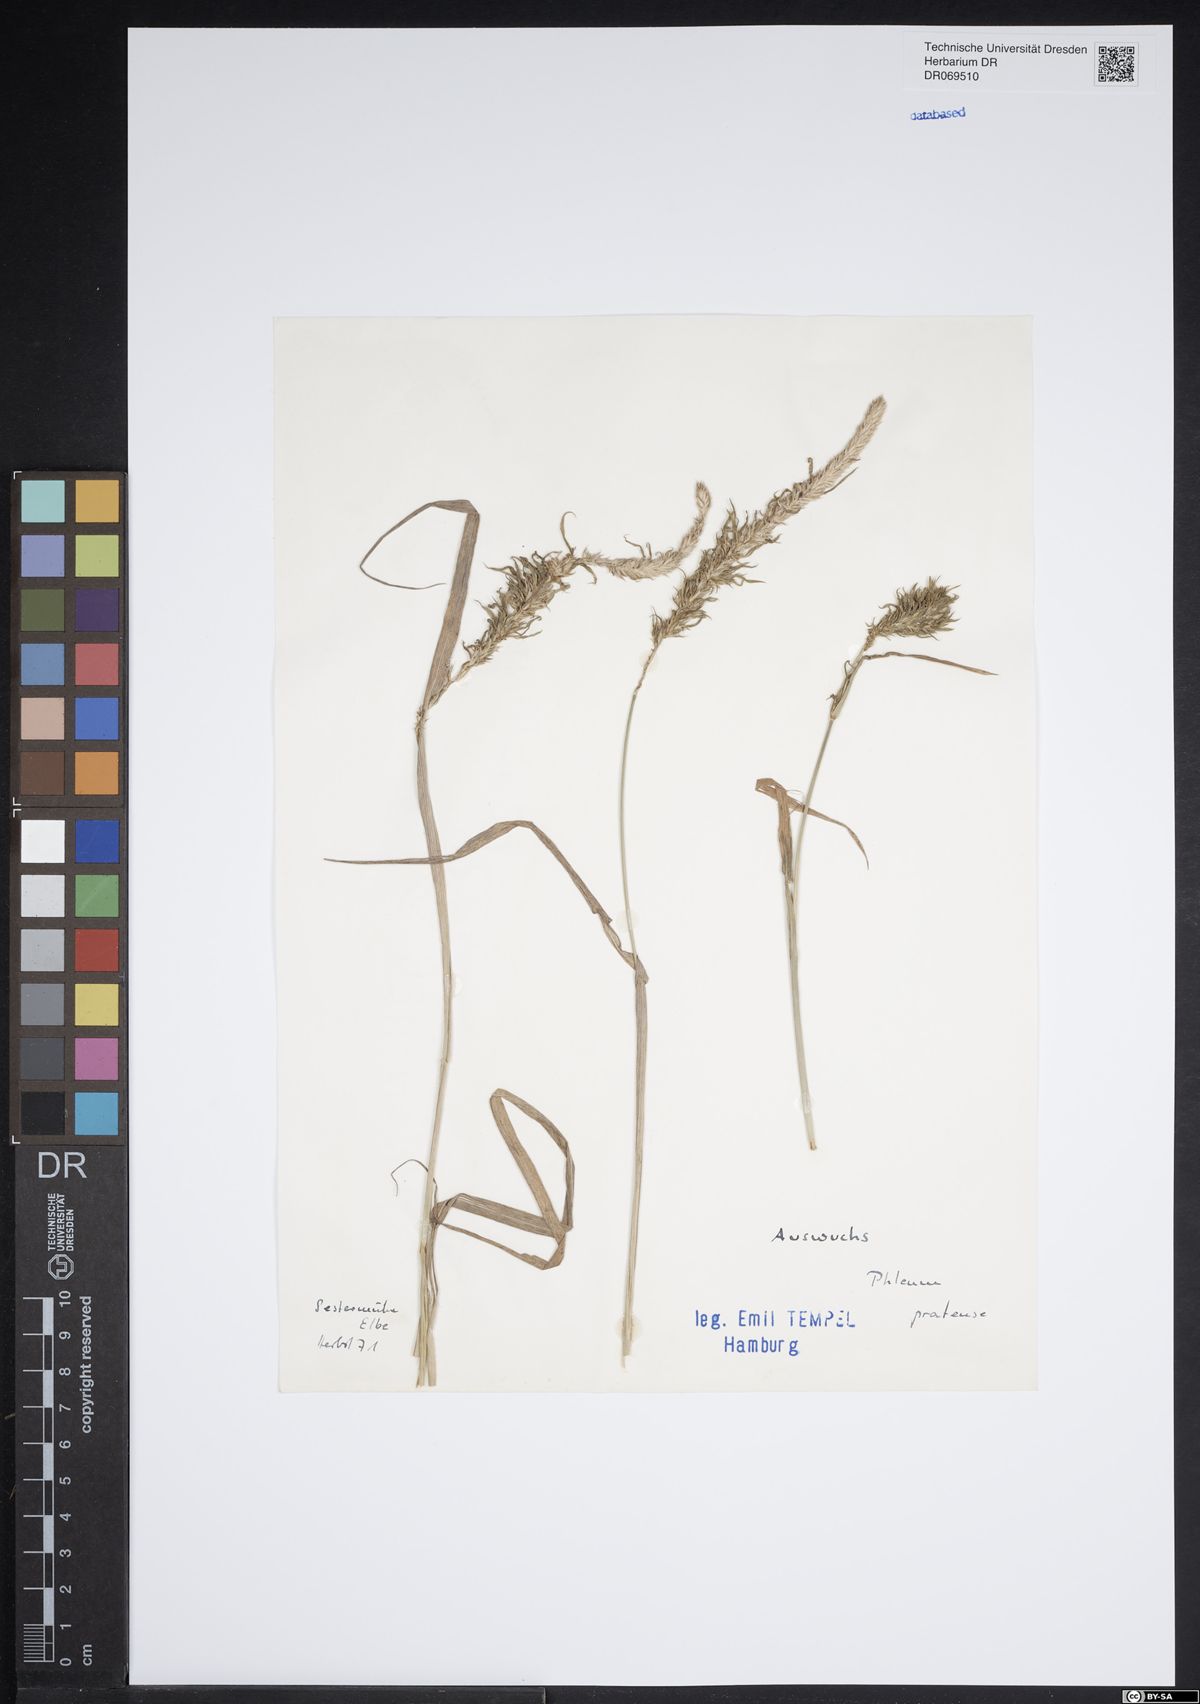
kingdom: Plantae
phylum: Tracheophyta
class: Liliopsida
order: Poales
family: Poaceae
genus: Phleum
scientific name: Phleum pratense
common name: Timothy grass
